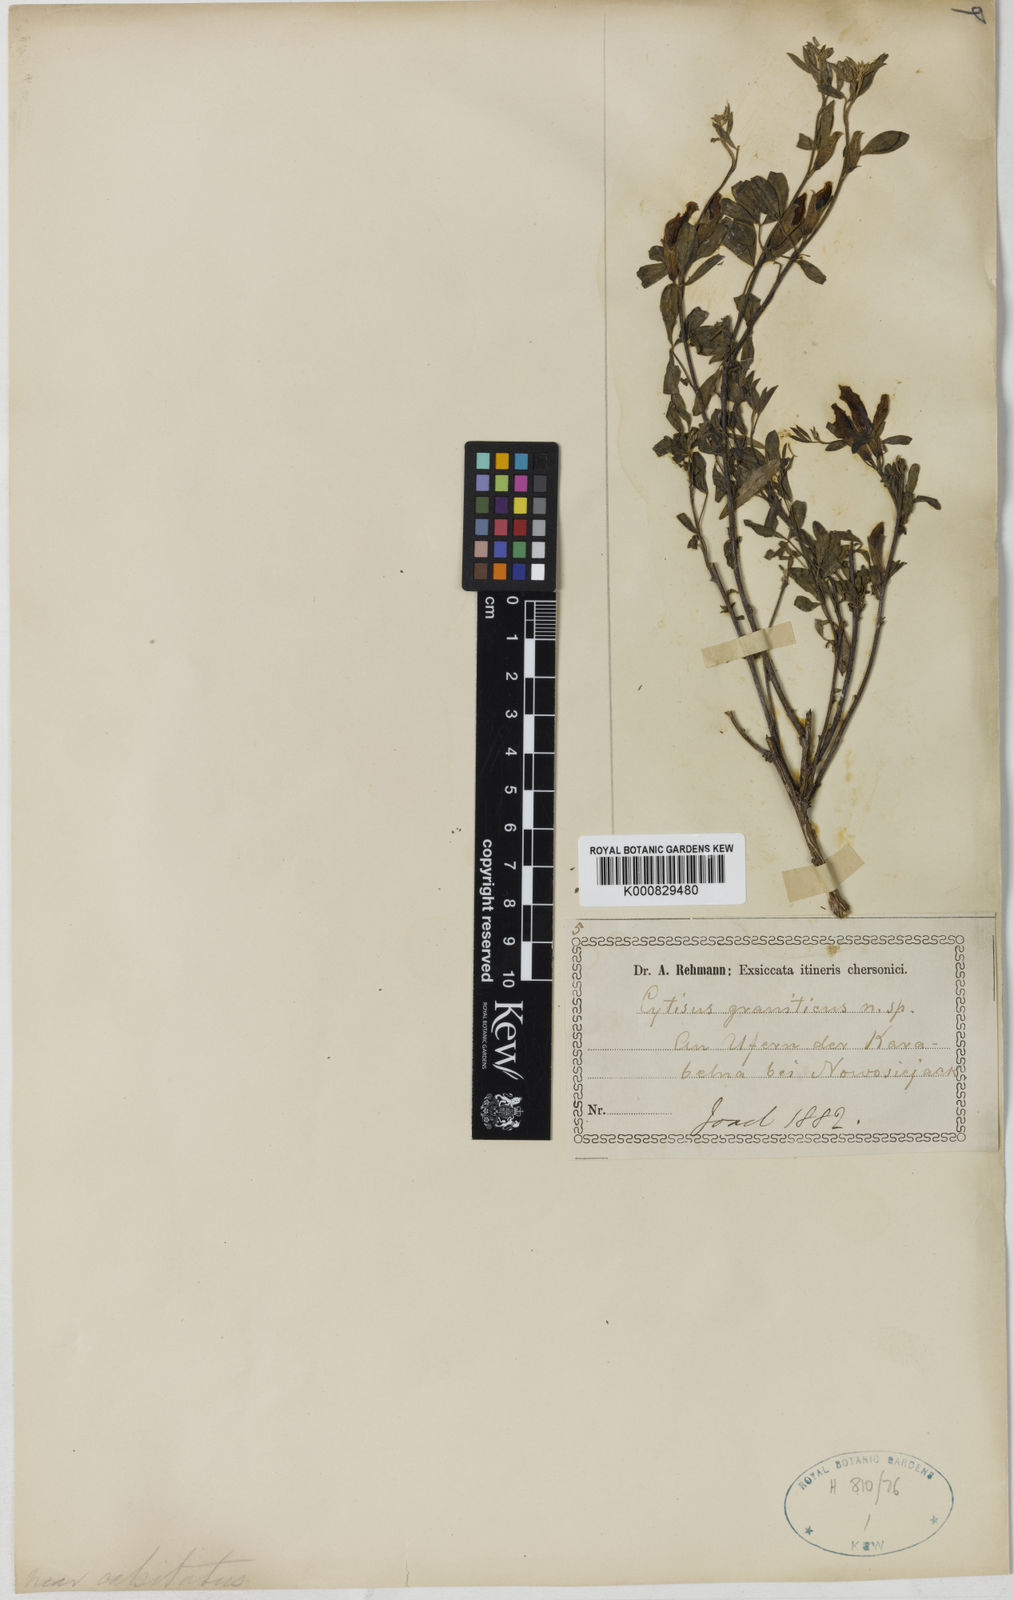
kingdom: Plantae
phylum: Tracheophyta
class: Magnoliopsida
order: Fabales
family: Fabaceae
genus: Chamaecytisus
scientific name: Chamaecytisus podolicus
